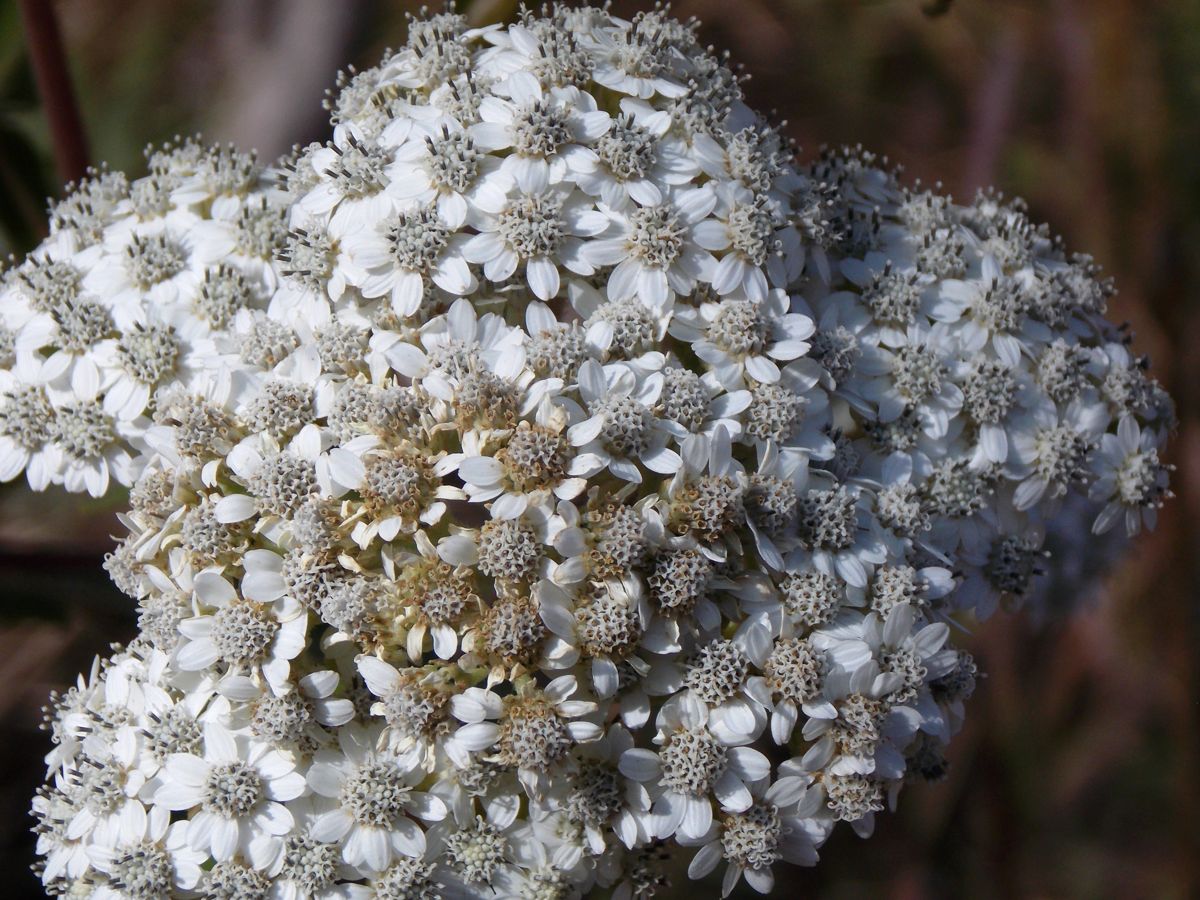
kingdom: Plantae
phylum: Tracheophyta
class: Magnoliopsida
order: Asterales
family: Asteraceae
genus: Verbesina
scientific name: Verbesina turbacensis
